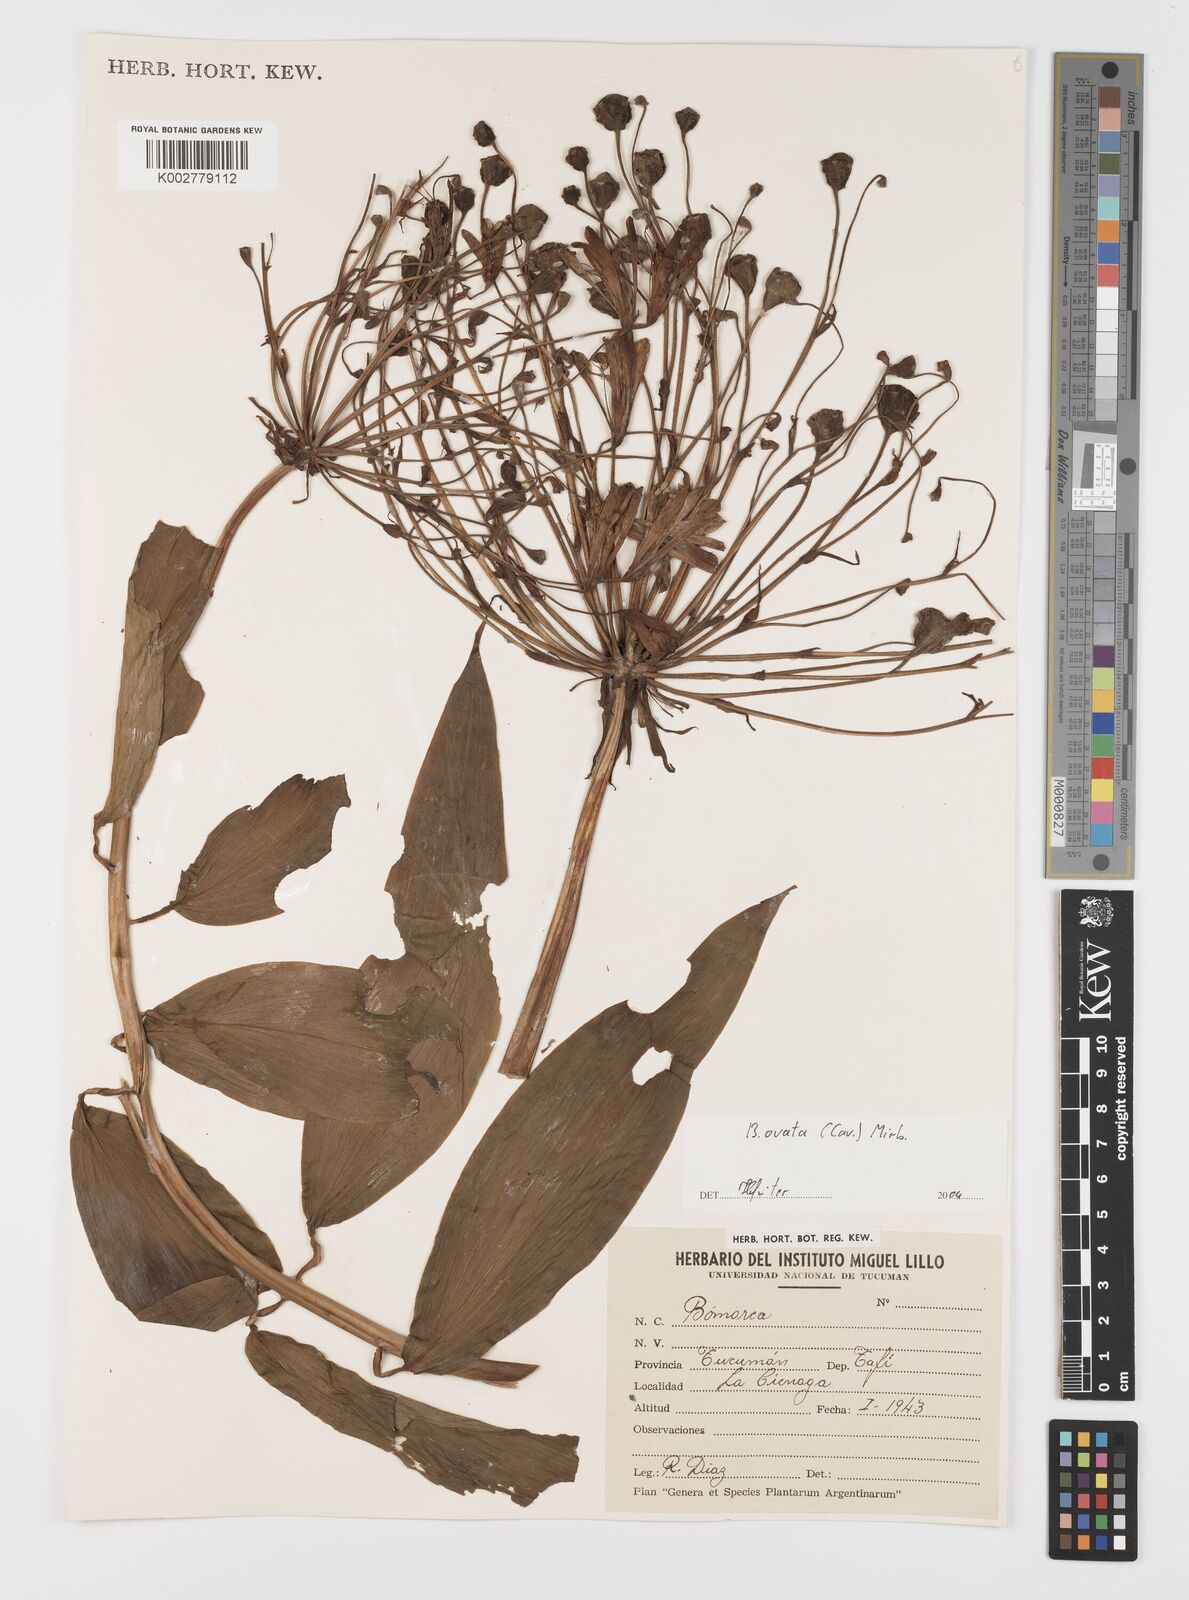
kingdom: Plantae
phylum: Tracheophyta
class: Liliopsida
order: Liliales
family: Alstroemeriaceae
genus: Bomarea
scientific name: Bomarea ovata
